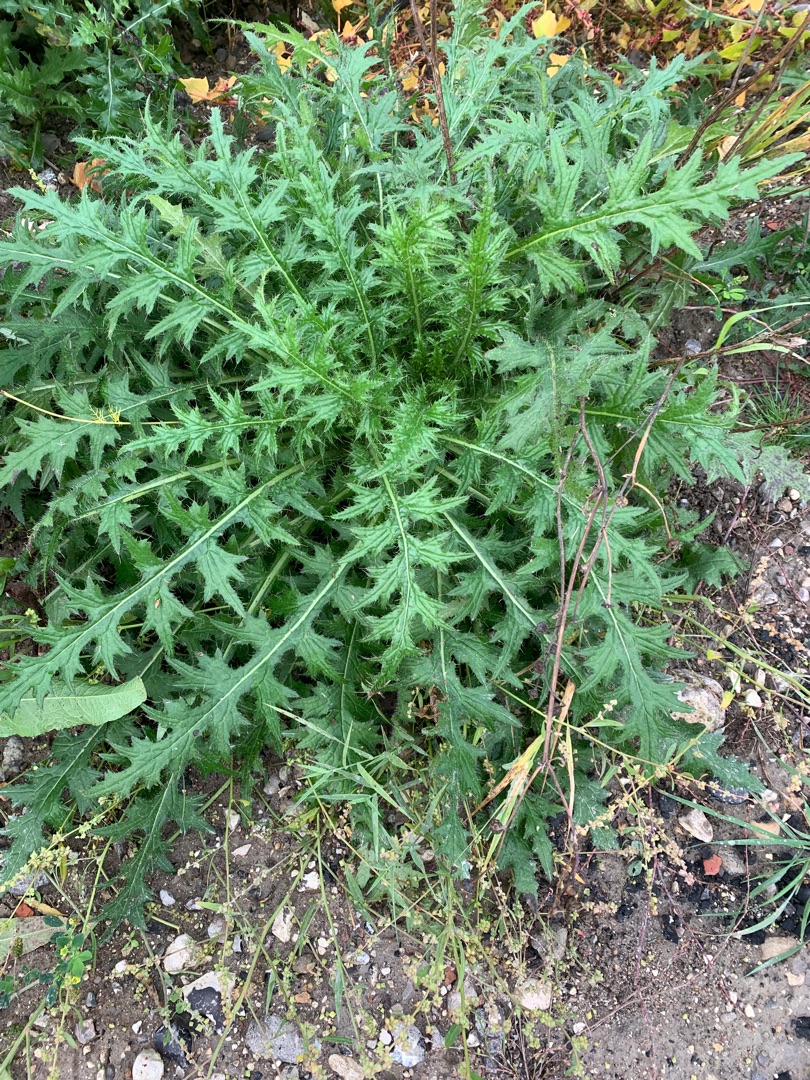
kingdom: Plantae
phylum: Tracheophyta
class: Magnoliopsida
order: Asterales
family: Asteraceae
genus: Cirsium
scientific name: Cirsium palustre
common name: Kær-tidsel
